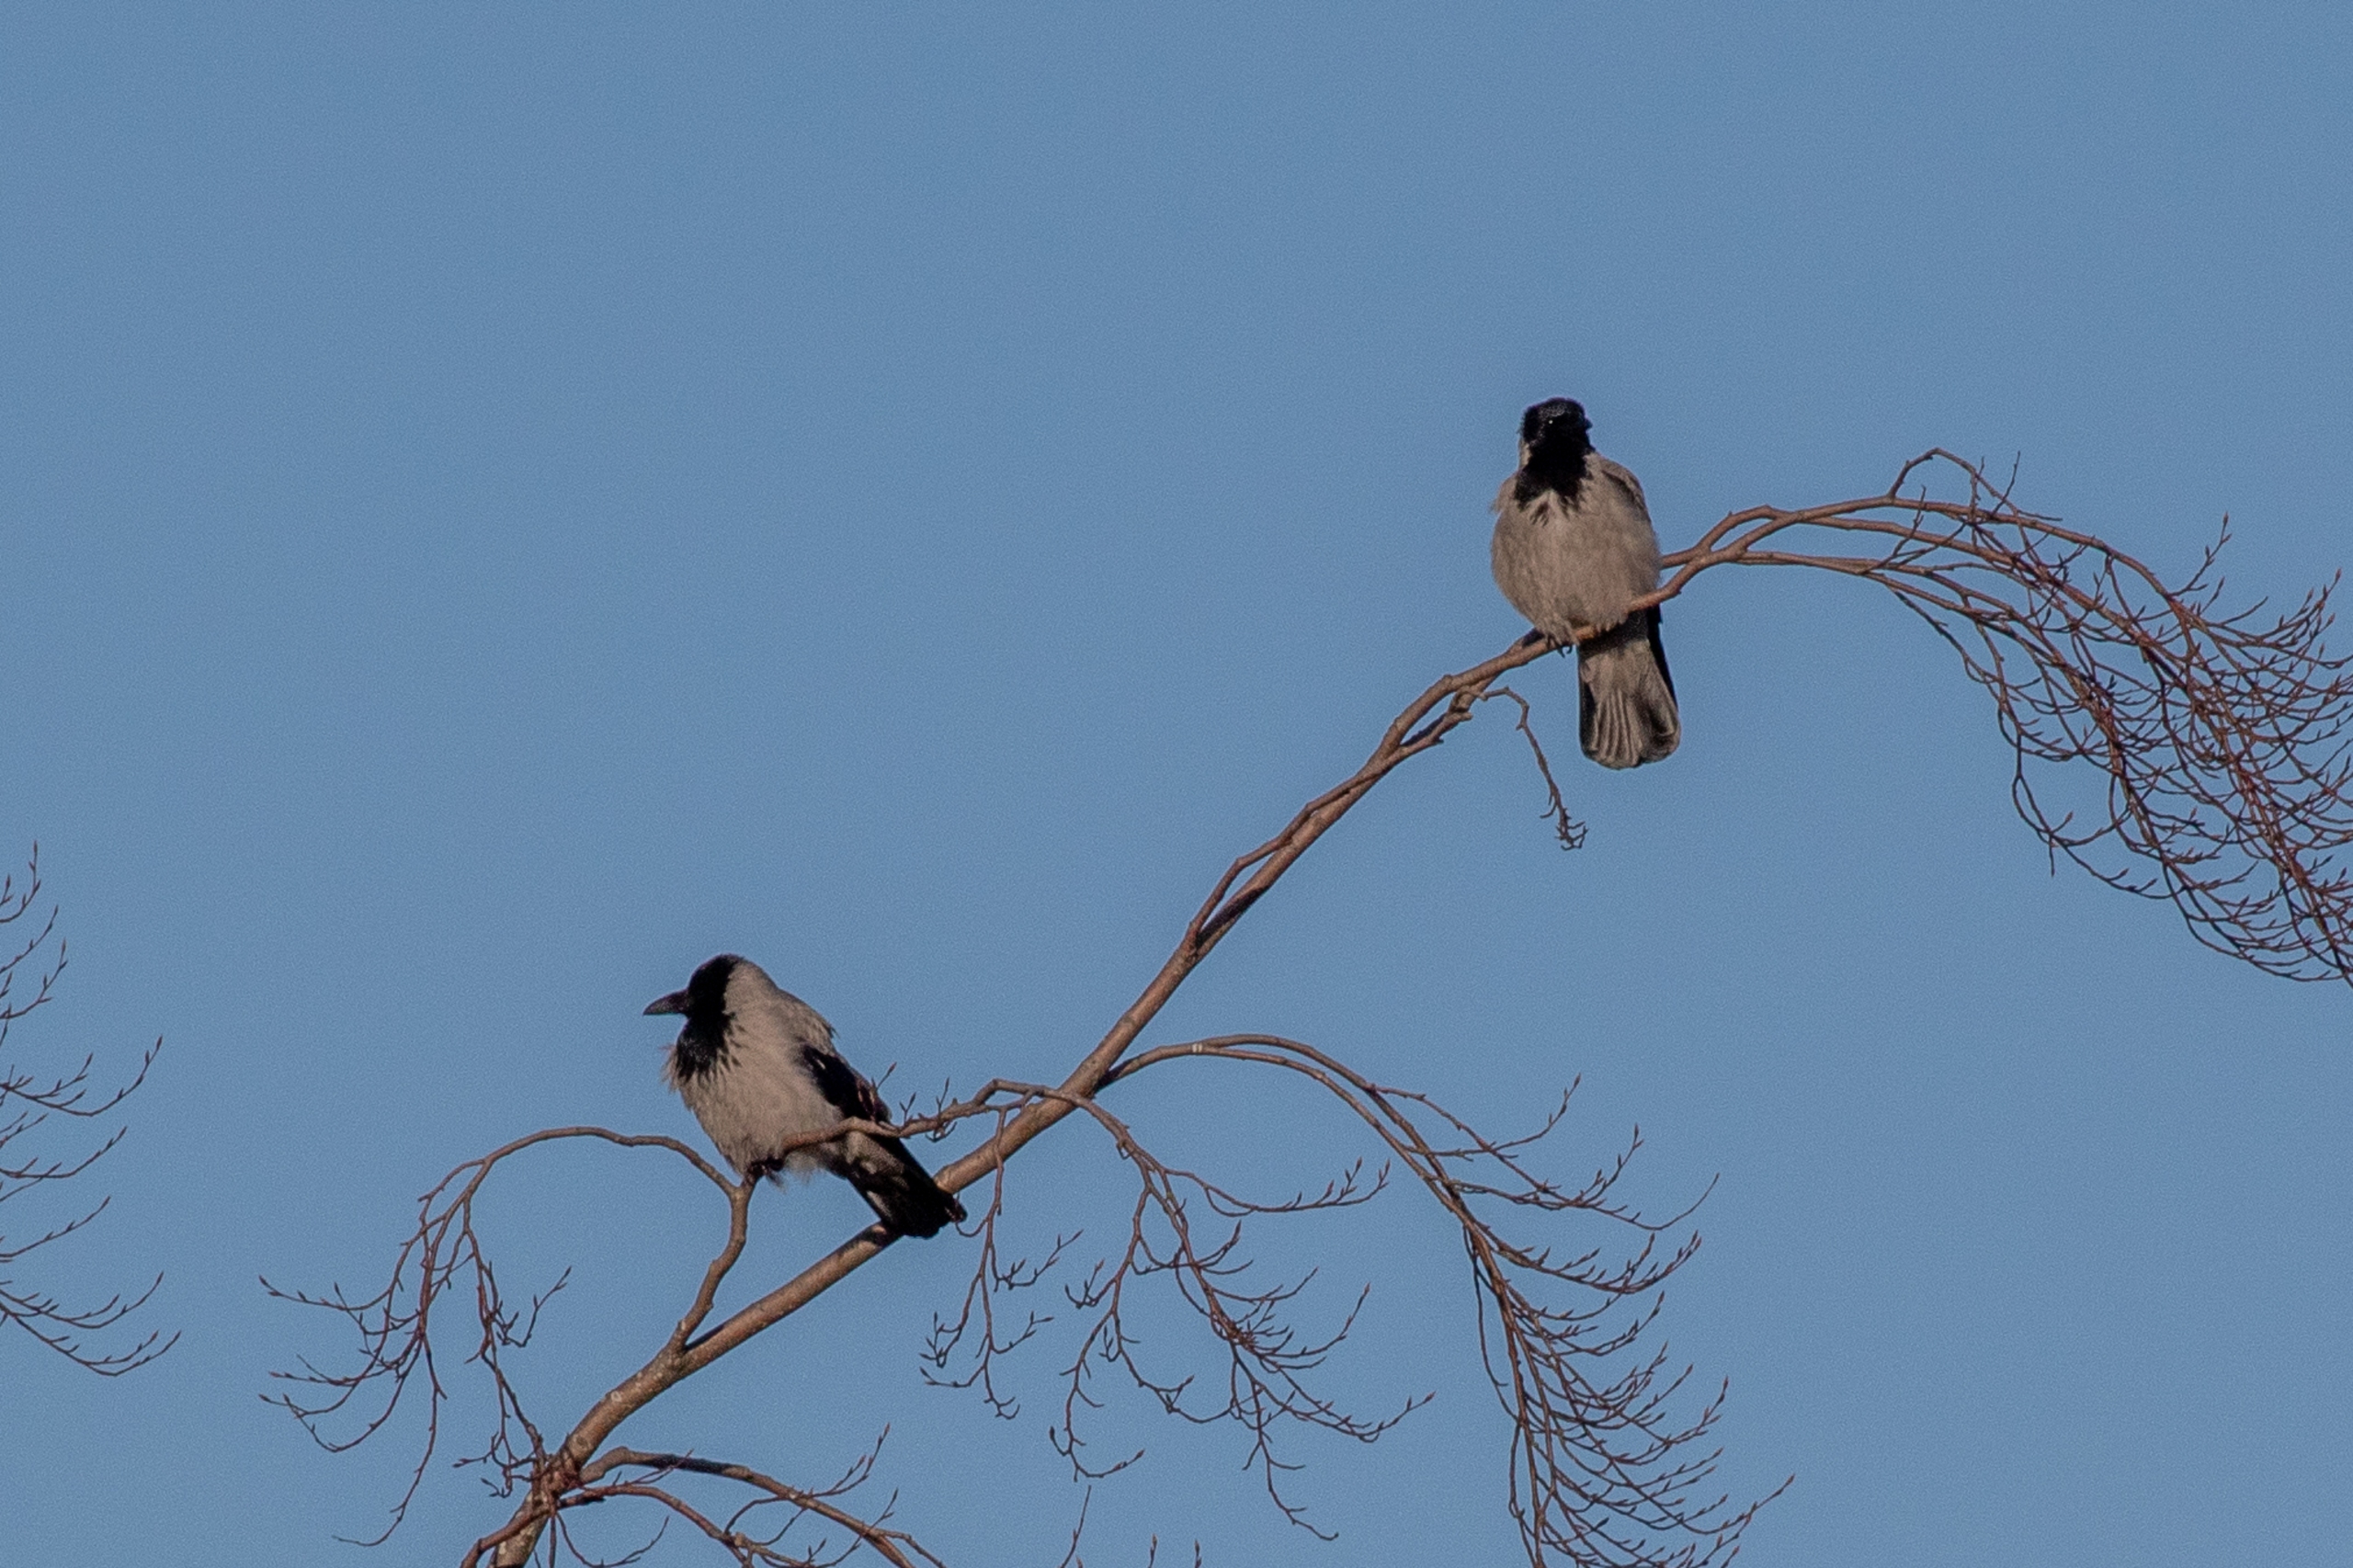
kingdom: Animalia
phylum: Chordata
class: Aves
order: Passeriformes
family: Corvidae
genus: Corvus
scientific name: Corvus cornix
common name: Gråkrage
